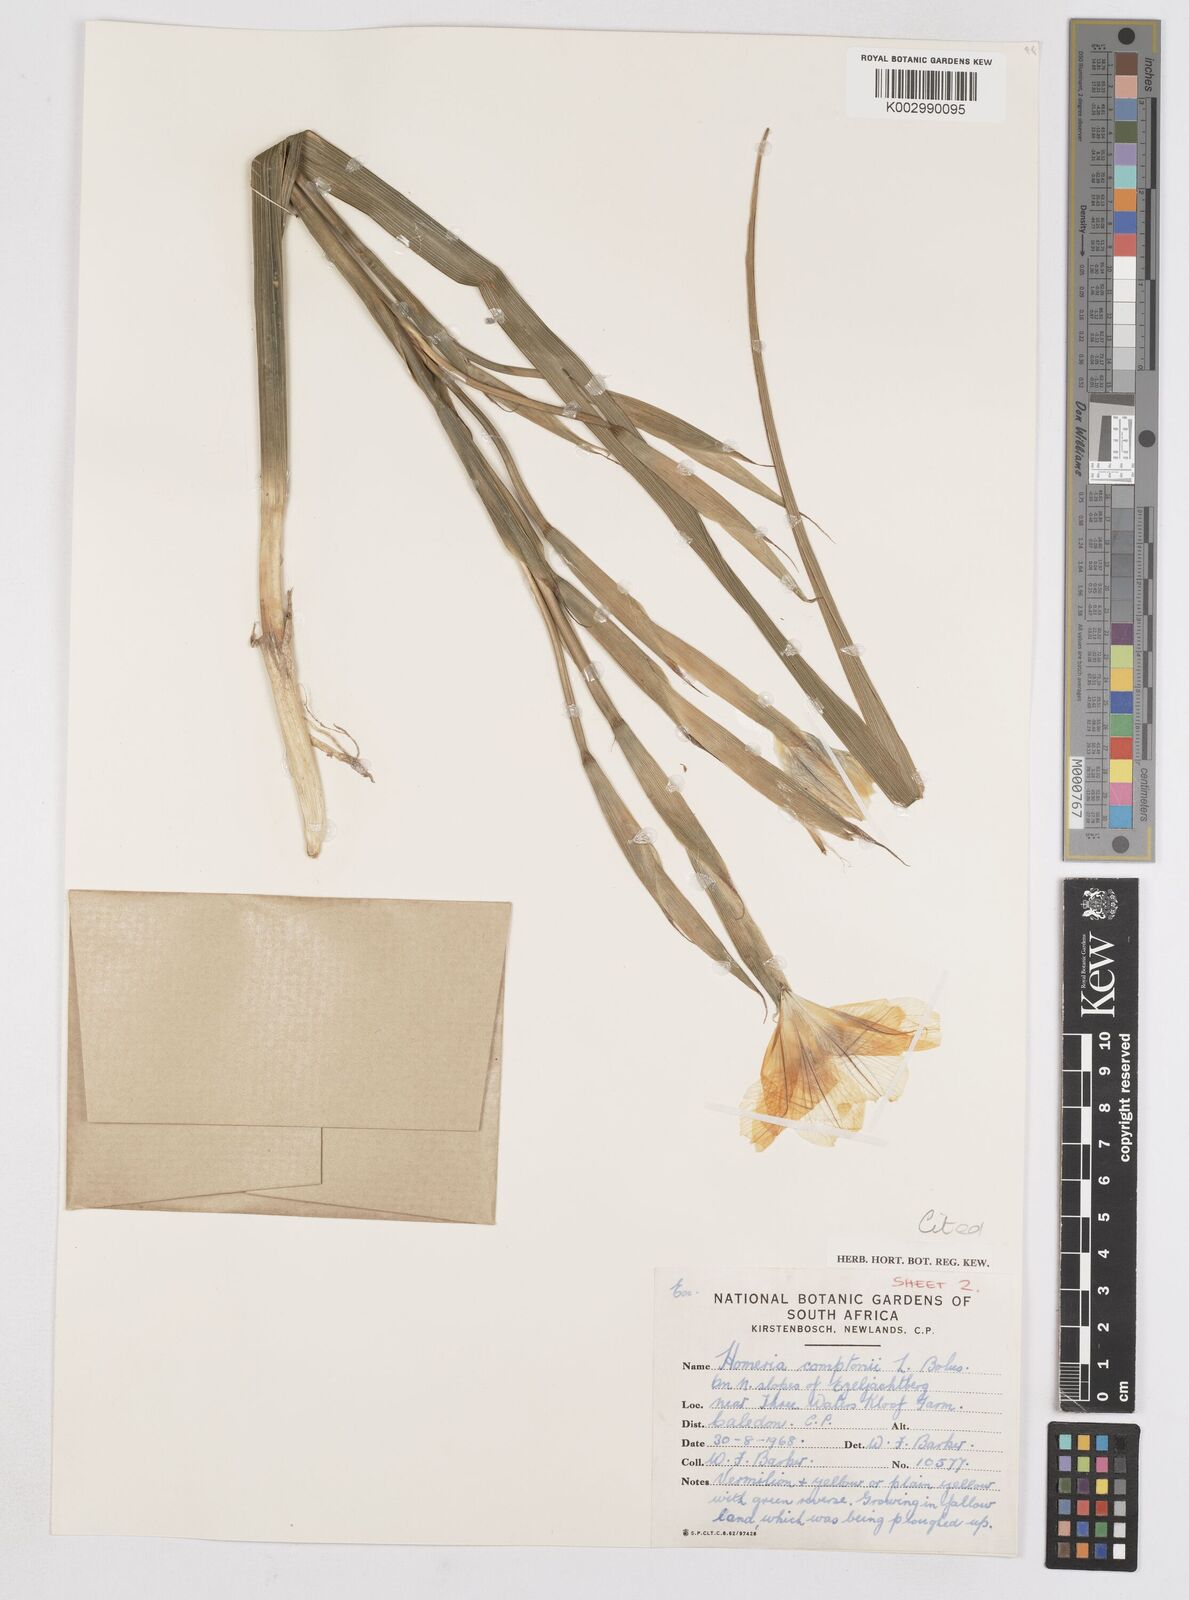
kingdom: Plantae
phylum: Tracheophyta
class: Liliopsida
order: Asparagales
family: Iridaceae
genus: Moraea
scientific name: Moraea comptonii
